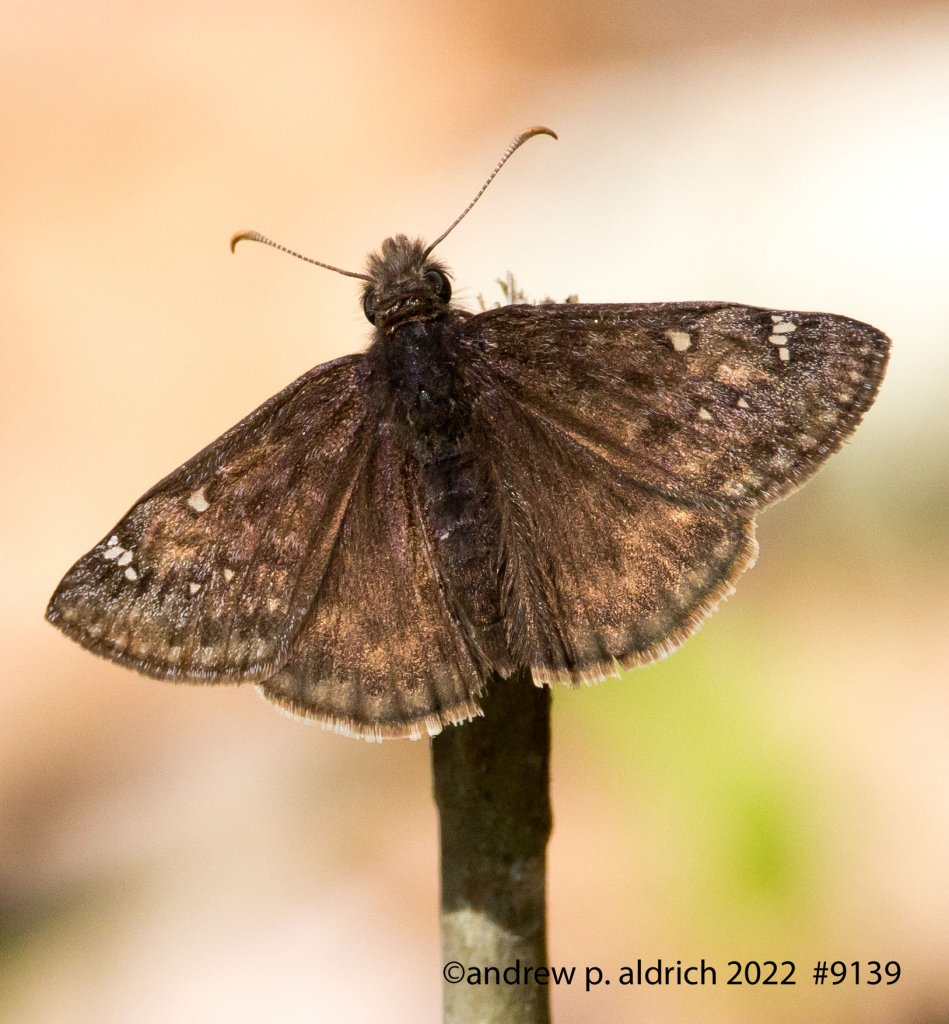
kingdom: Animalia
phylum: Arthropoda
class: Insecta
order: Lepidoptera
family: Hesperiidae
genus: Gesta
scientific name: Gesta
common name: Juvenal's Duskywing
